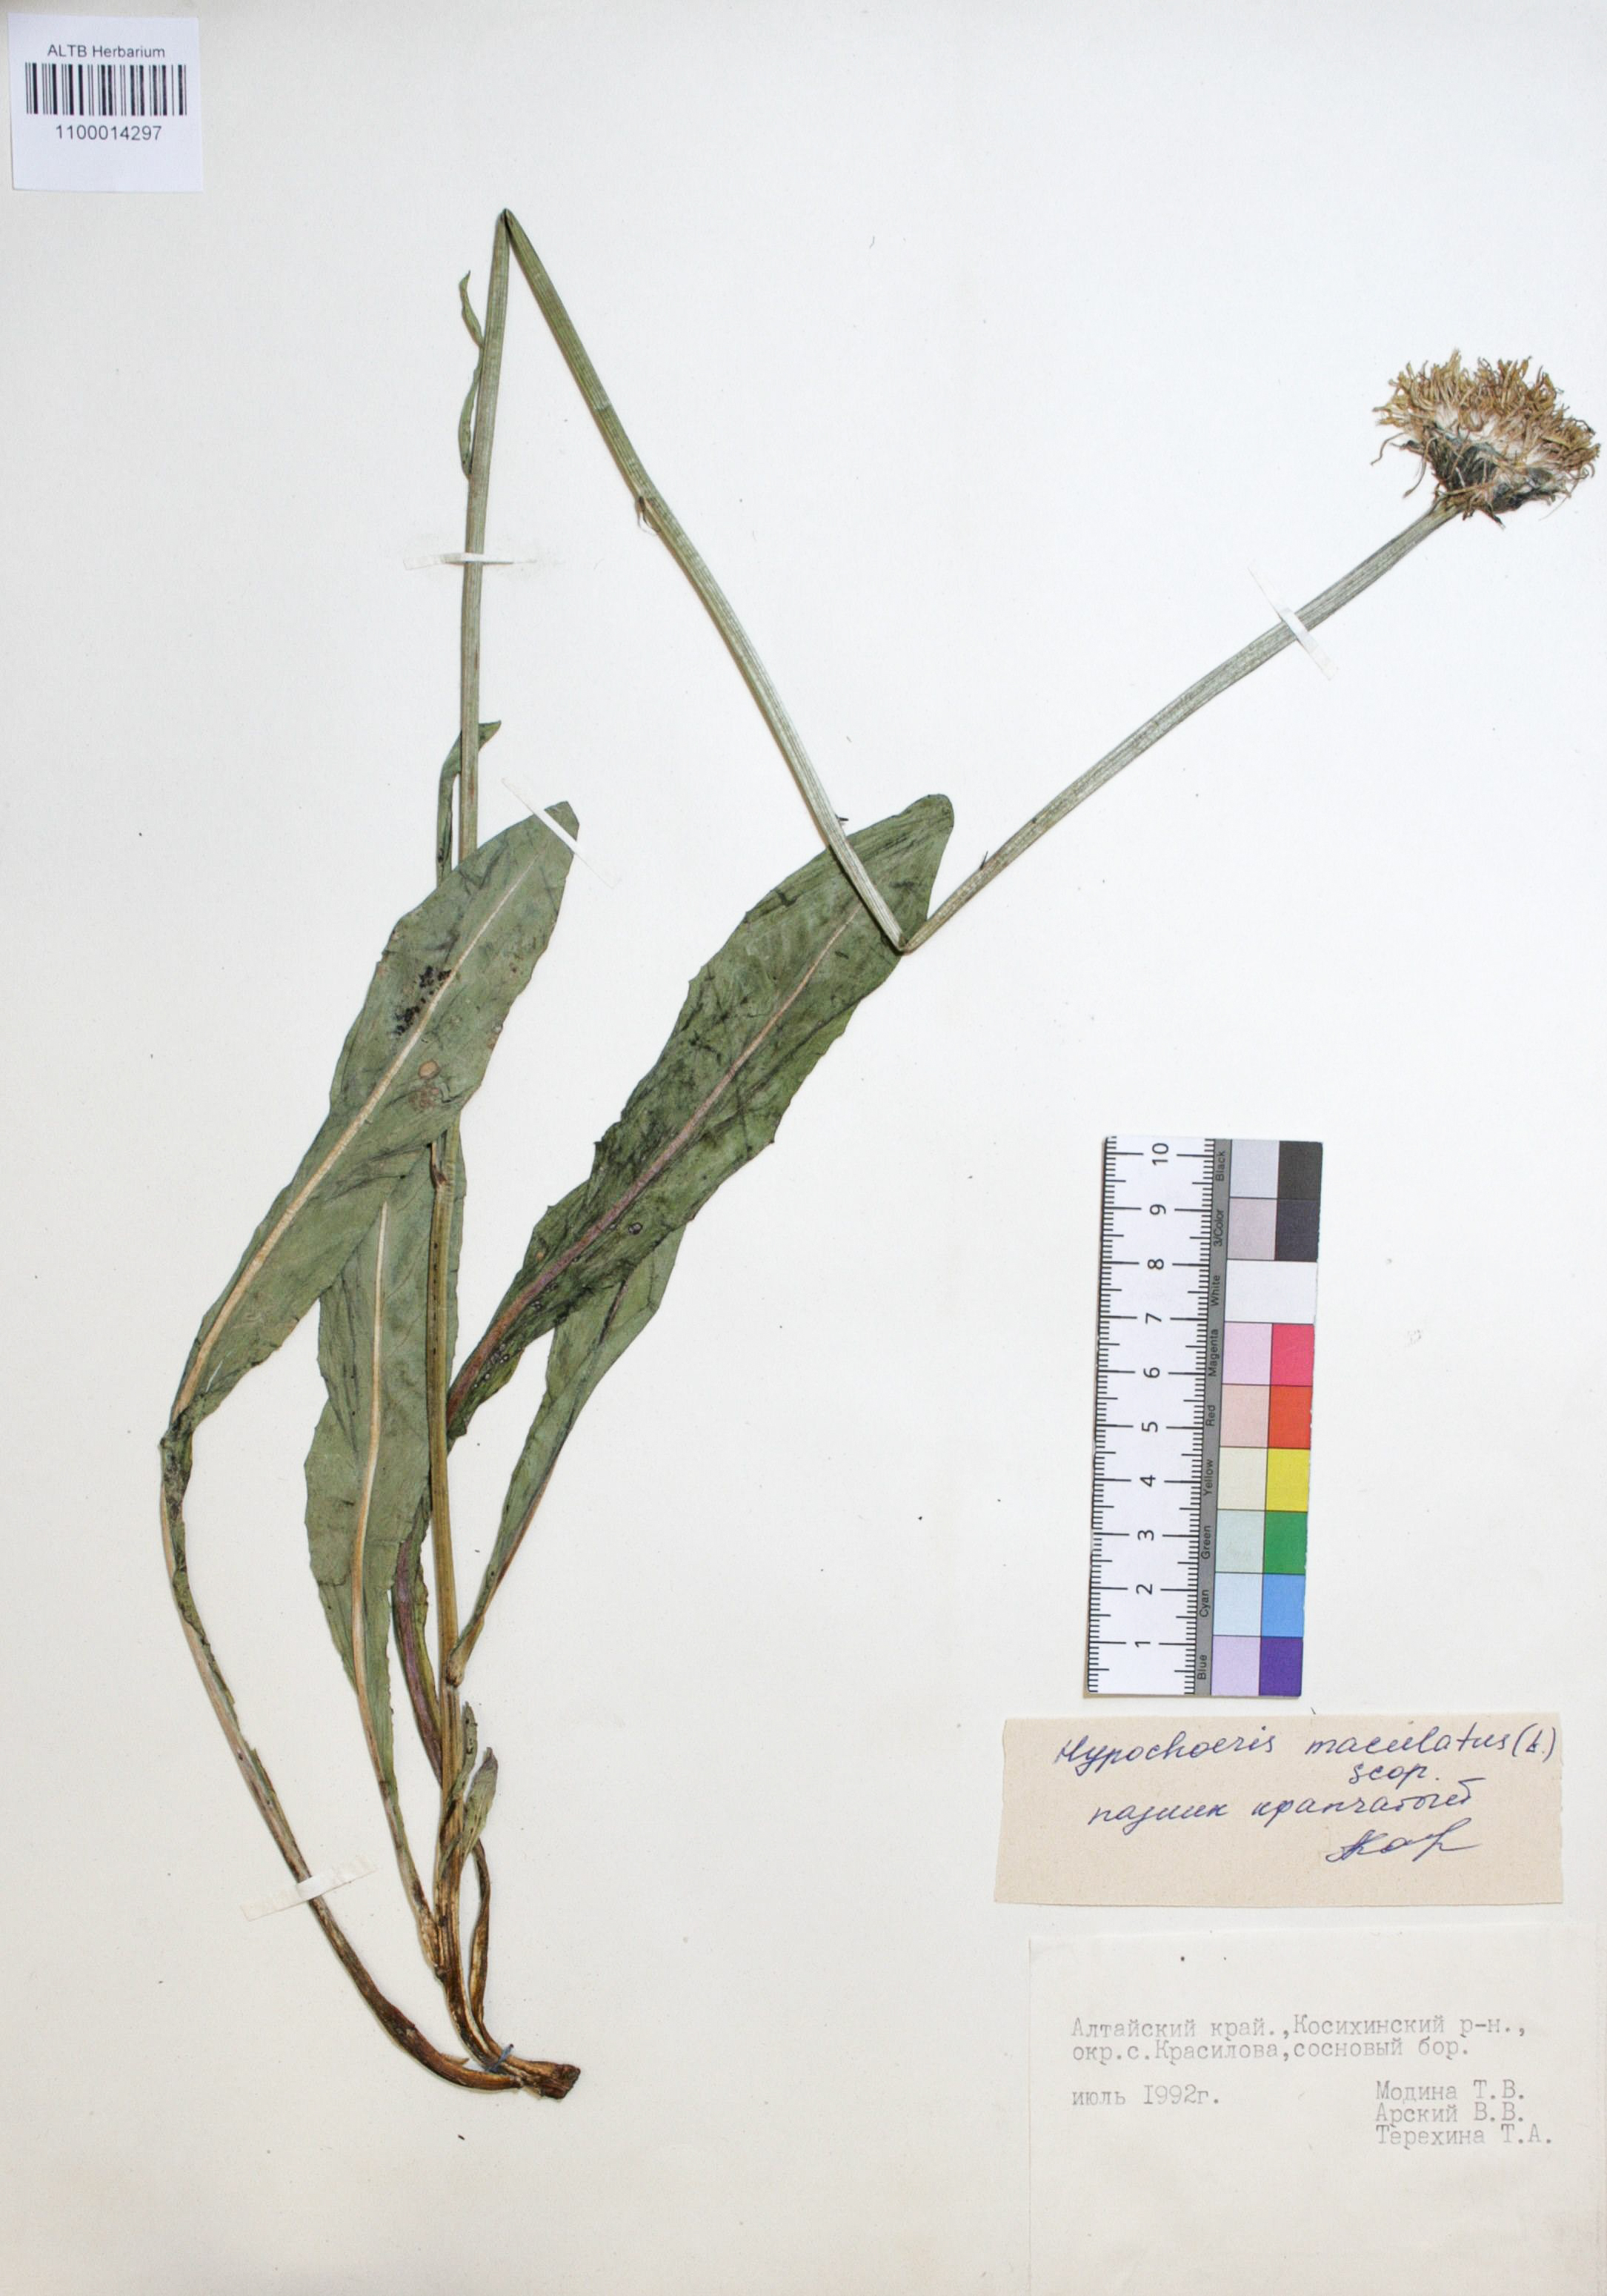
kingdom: Plantae
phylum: Tracheophyta
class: Magnoliopsida
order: Asterales
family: Asteraceae
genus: Trommsdorffia
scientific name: Trommsdorffia maculata
